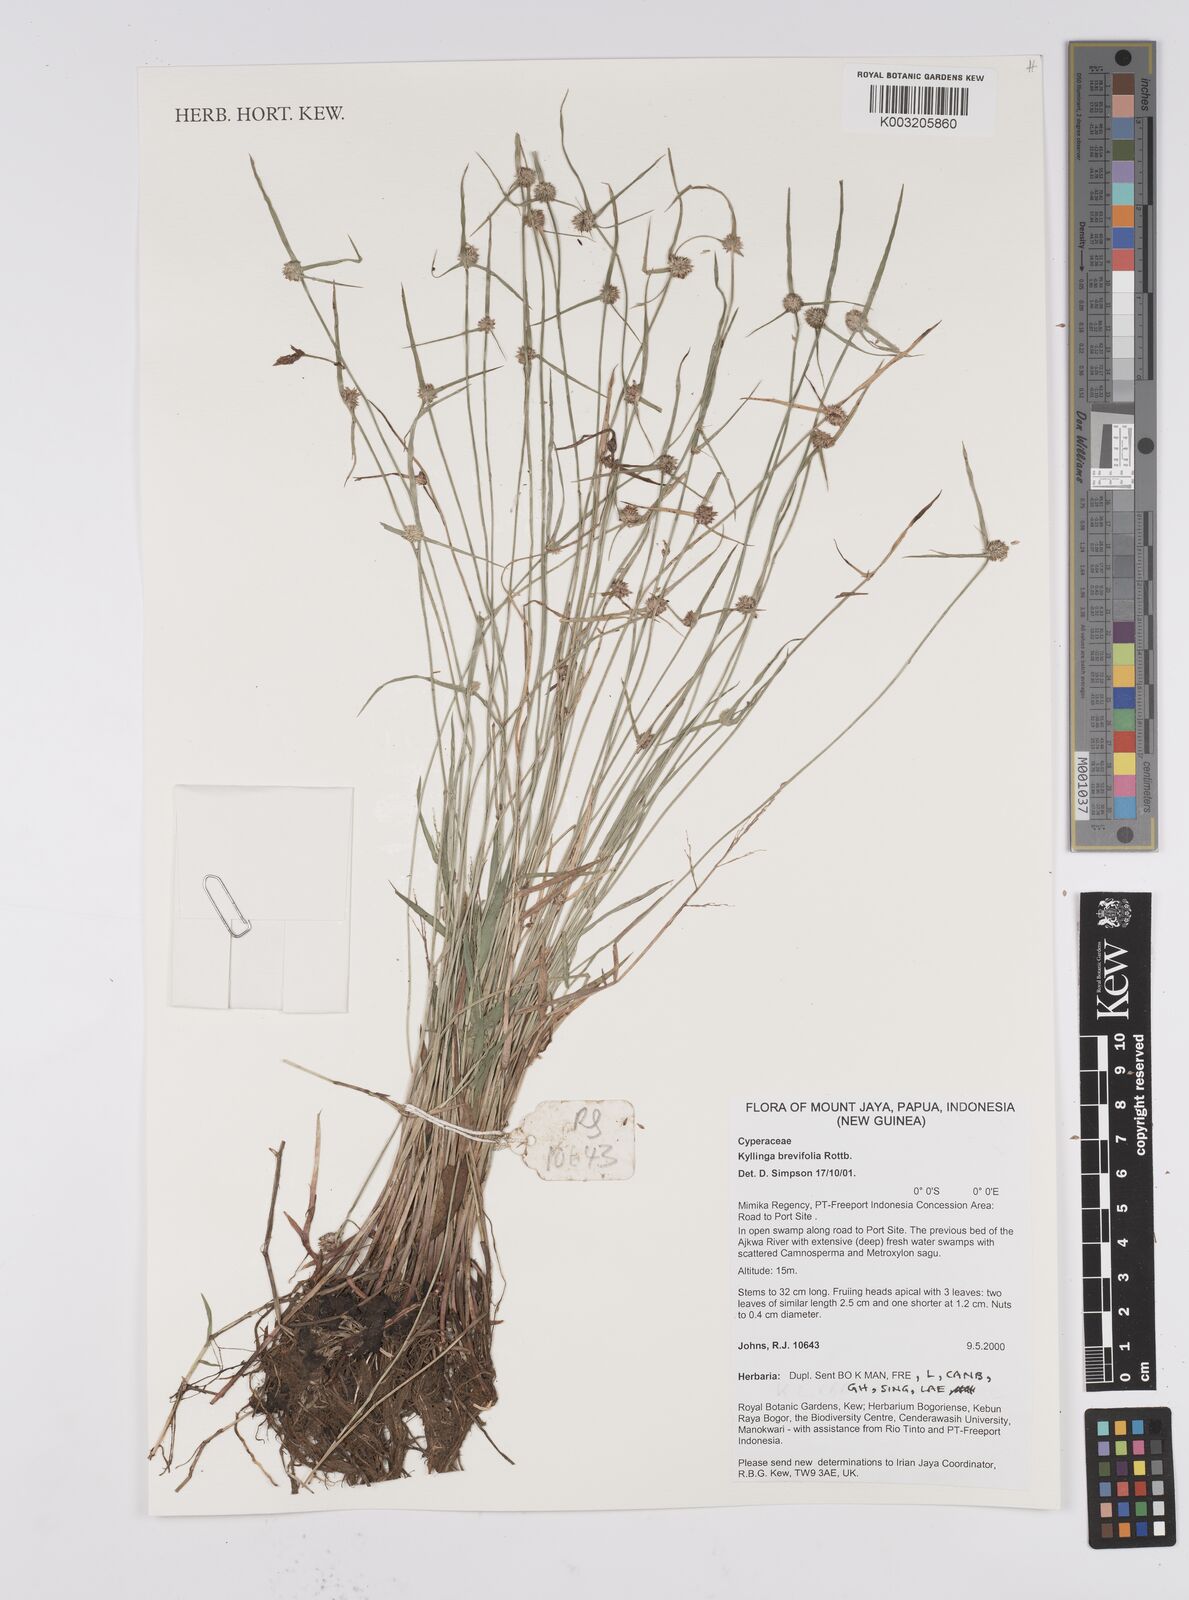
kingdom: Plantae
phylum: Tracheophyta
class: Liliopsida
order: Poales
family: Cyperaceae
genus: Cyperus
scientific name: Cyperus brevifolius
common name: Globe kyllinga
